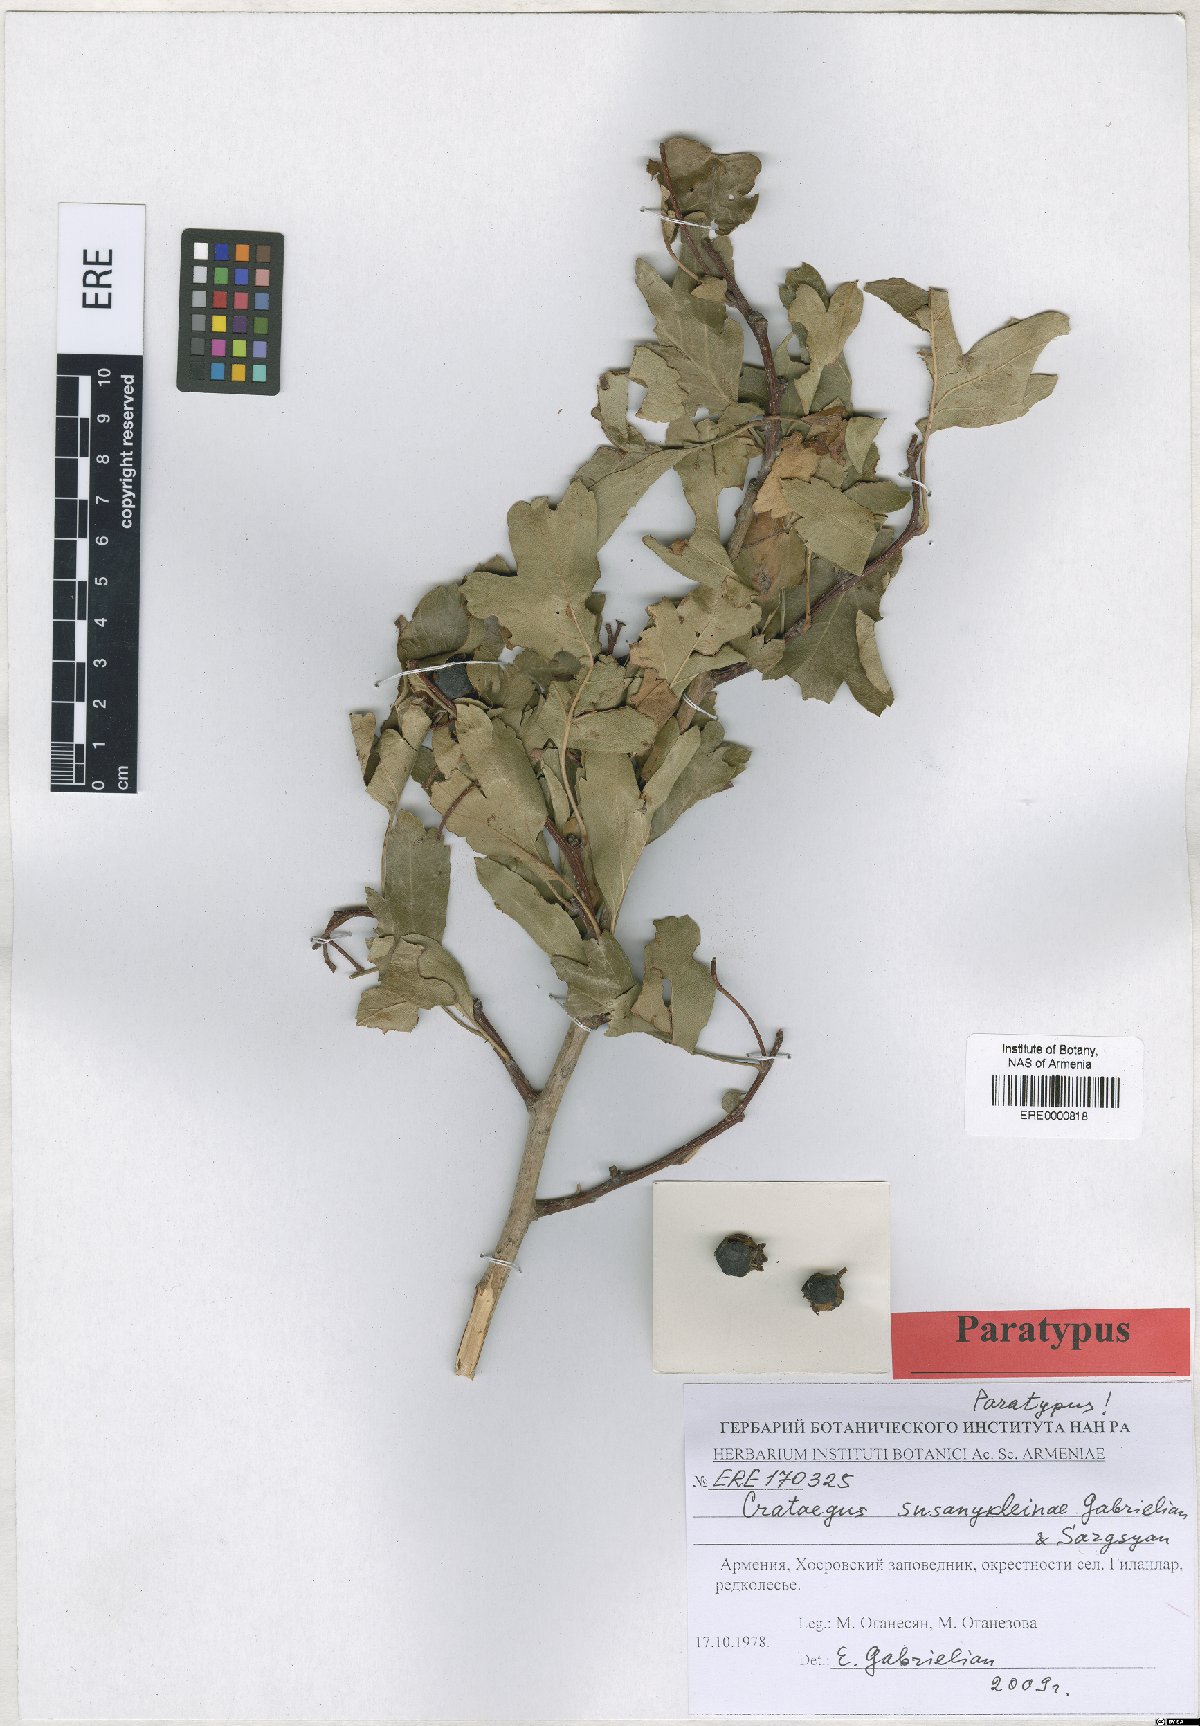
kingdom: Plantae
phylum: Tracheophyta
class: Magnoliopsida
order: Rosales
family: Rosaceae
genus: Crataegus
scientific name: Crataegus
